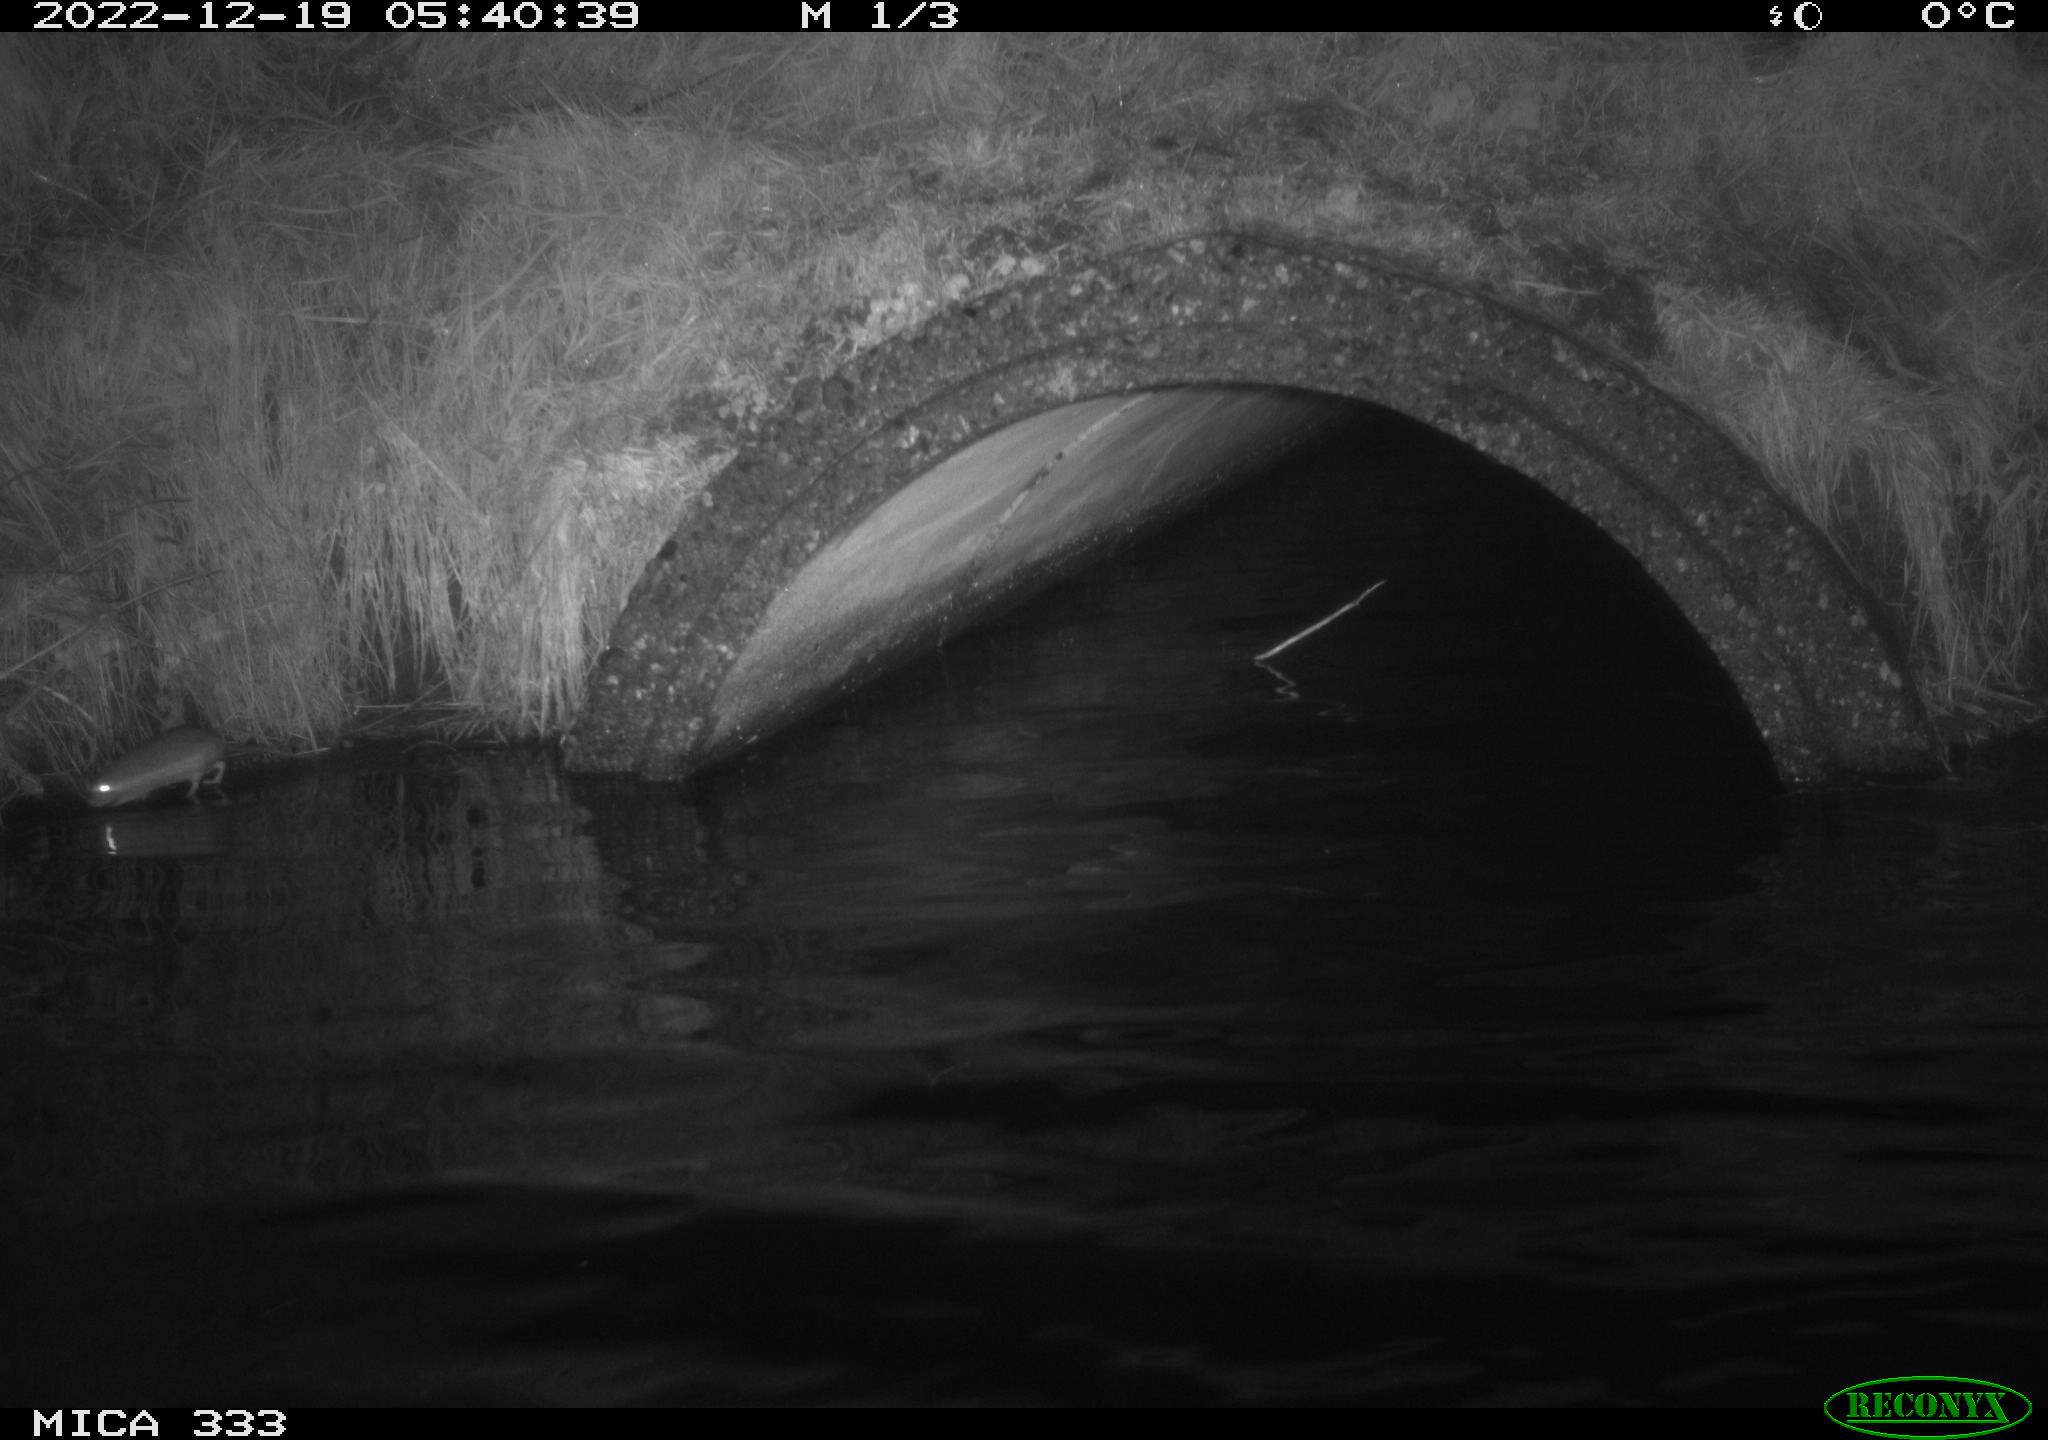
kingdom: Animalia
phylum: Chordata
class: Mammalia
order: Rodentia
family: Muridae
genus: Rattus
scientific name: Rattus norvegicus
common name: Brown rat
